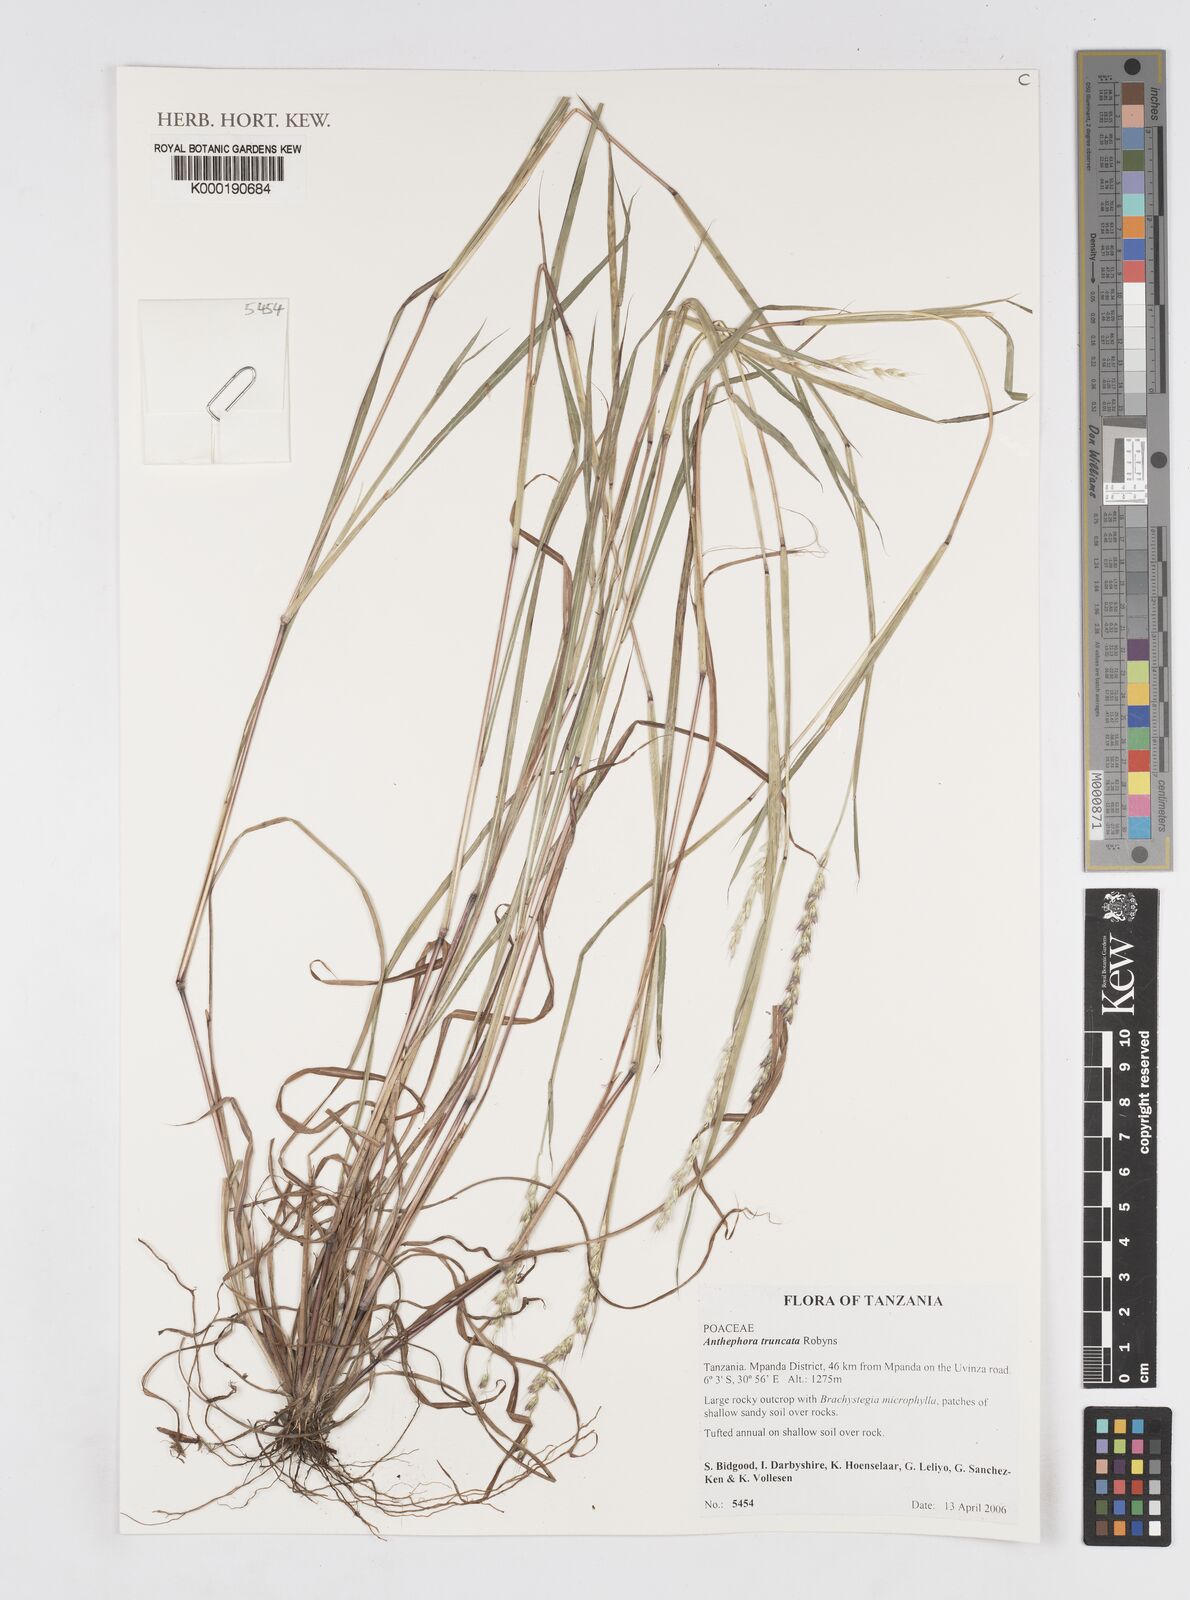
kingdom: Plantae
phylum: Tracheophyta
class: Liliopsida
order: Poales
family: Poaceae
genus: Anthephora
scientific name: Anthephora truncata
